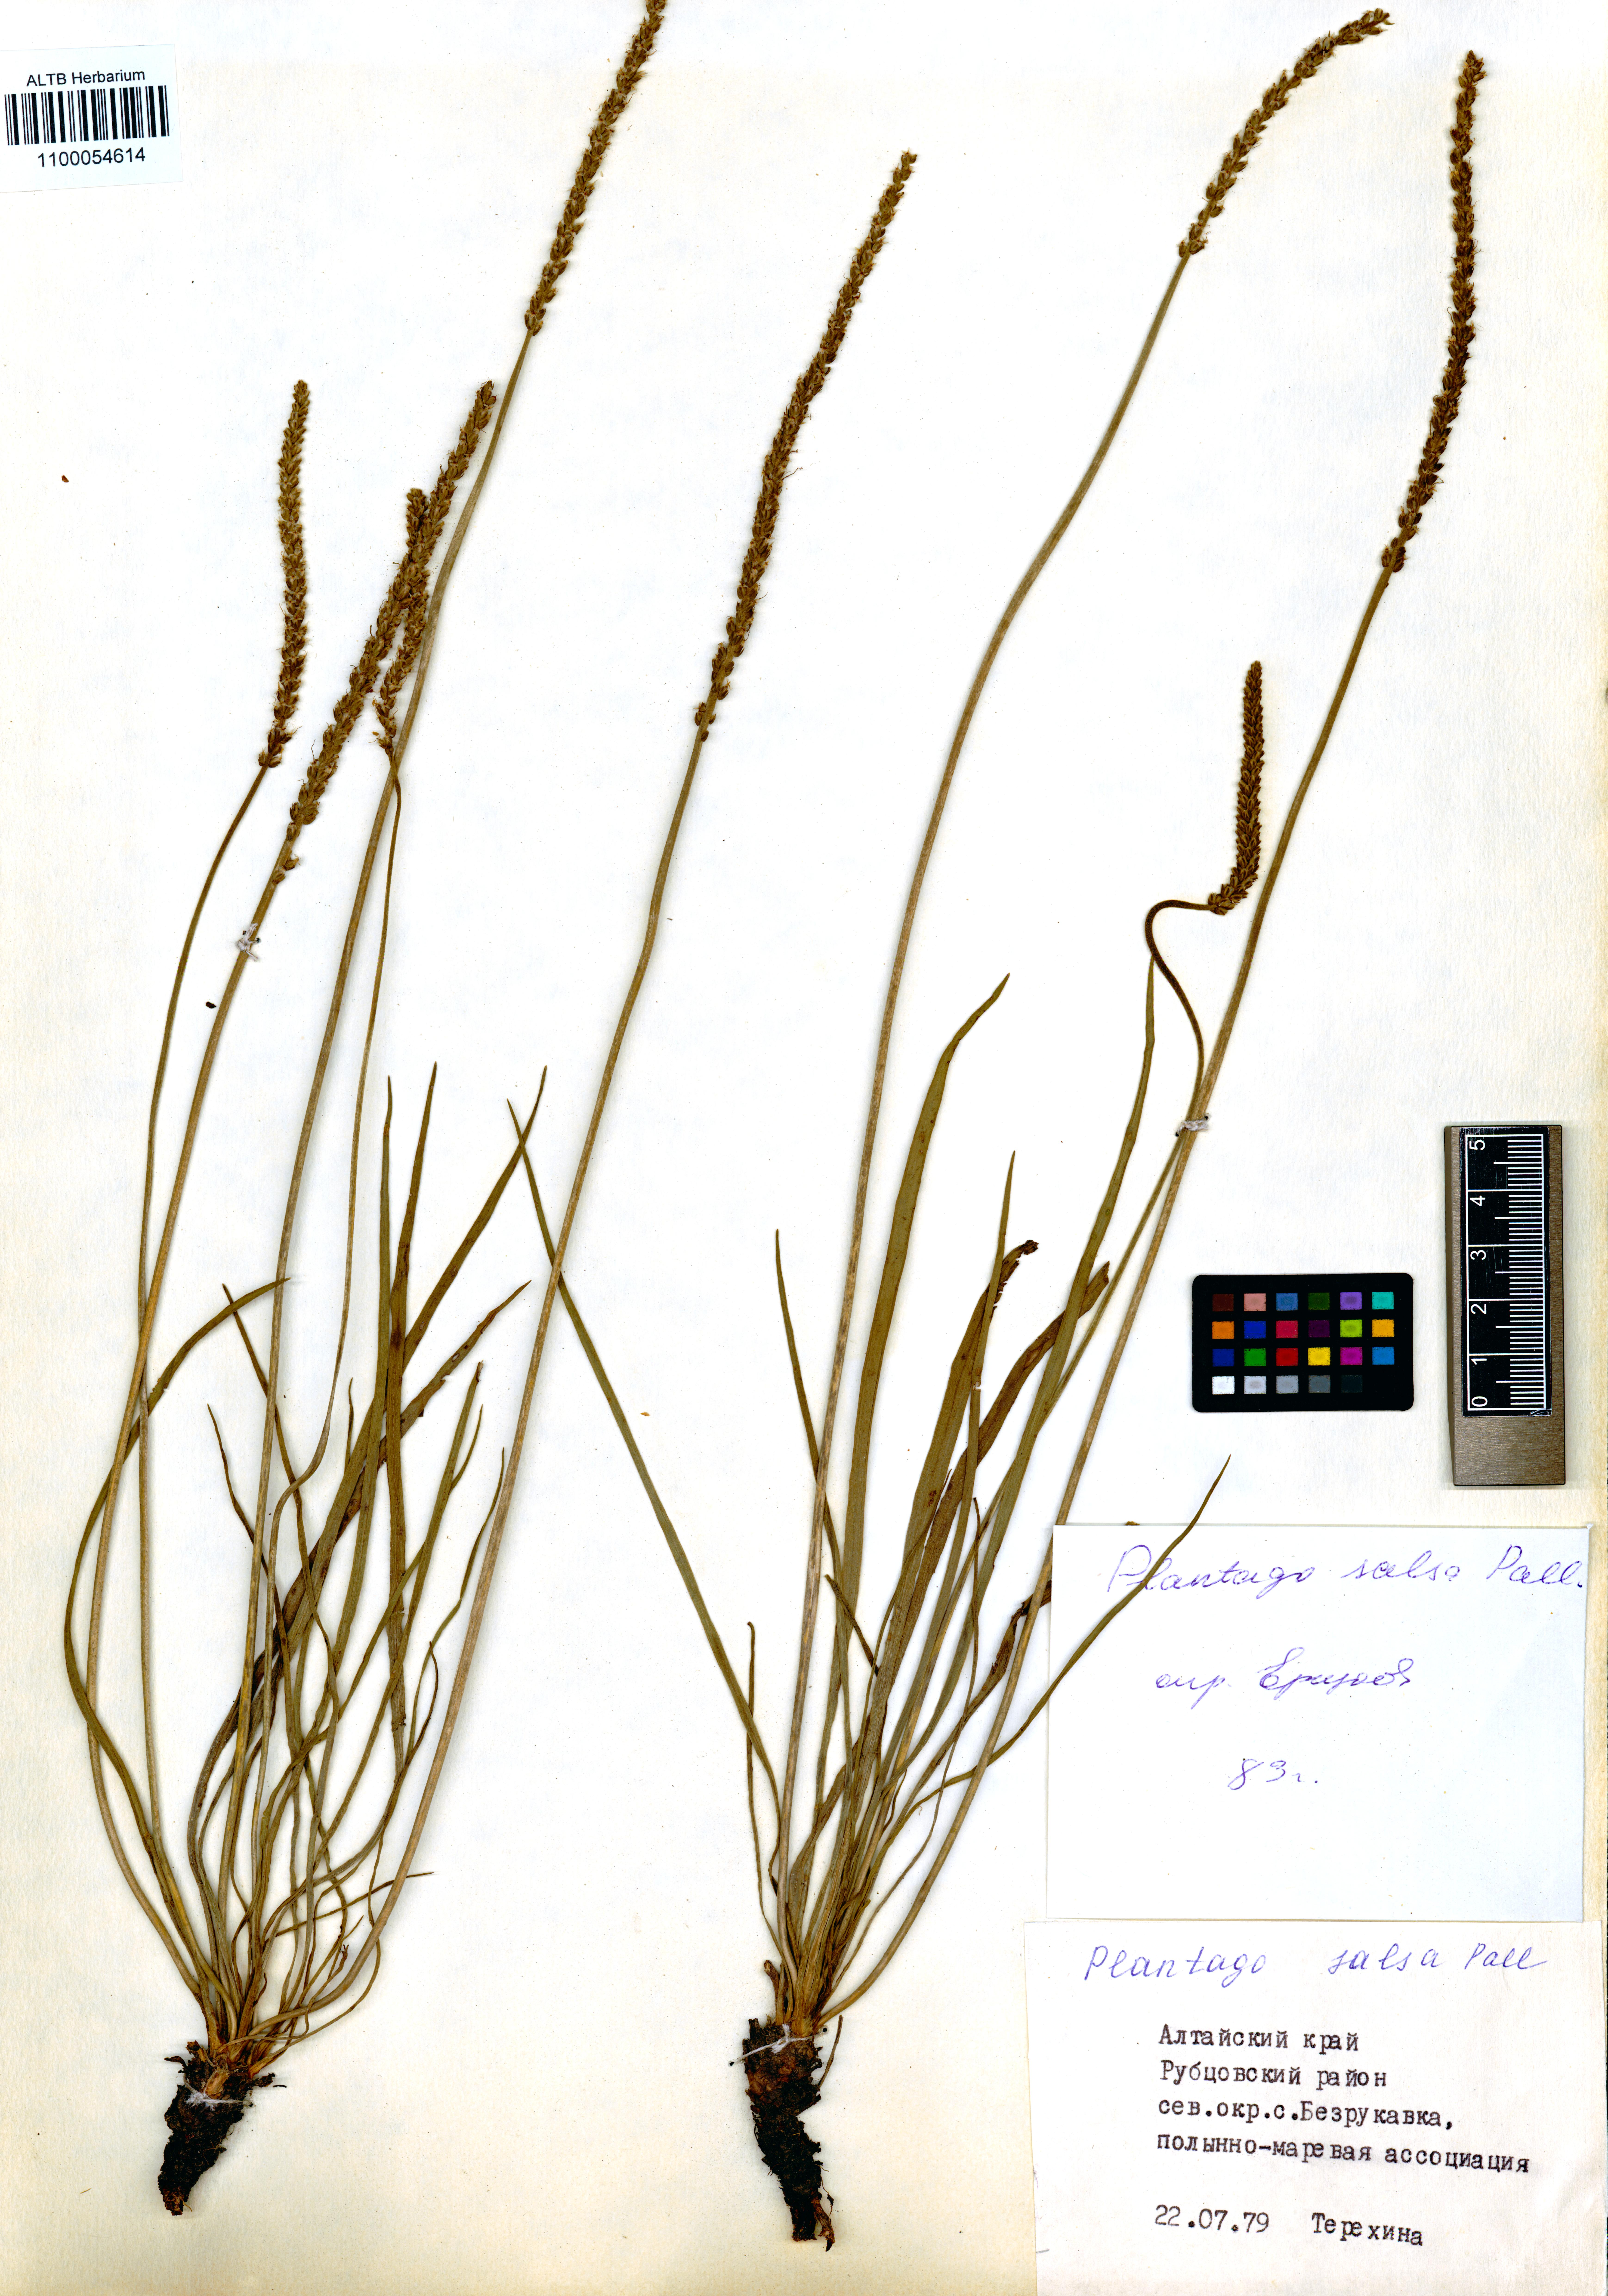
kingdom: Plantae
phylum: Tracheophyta
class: Magnoliopsida
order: Lamiales
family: Plantaginaceae
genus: Plantago
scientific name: Plantago salsa
